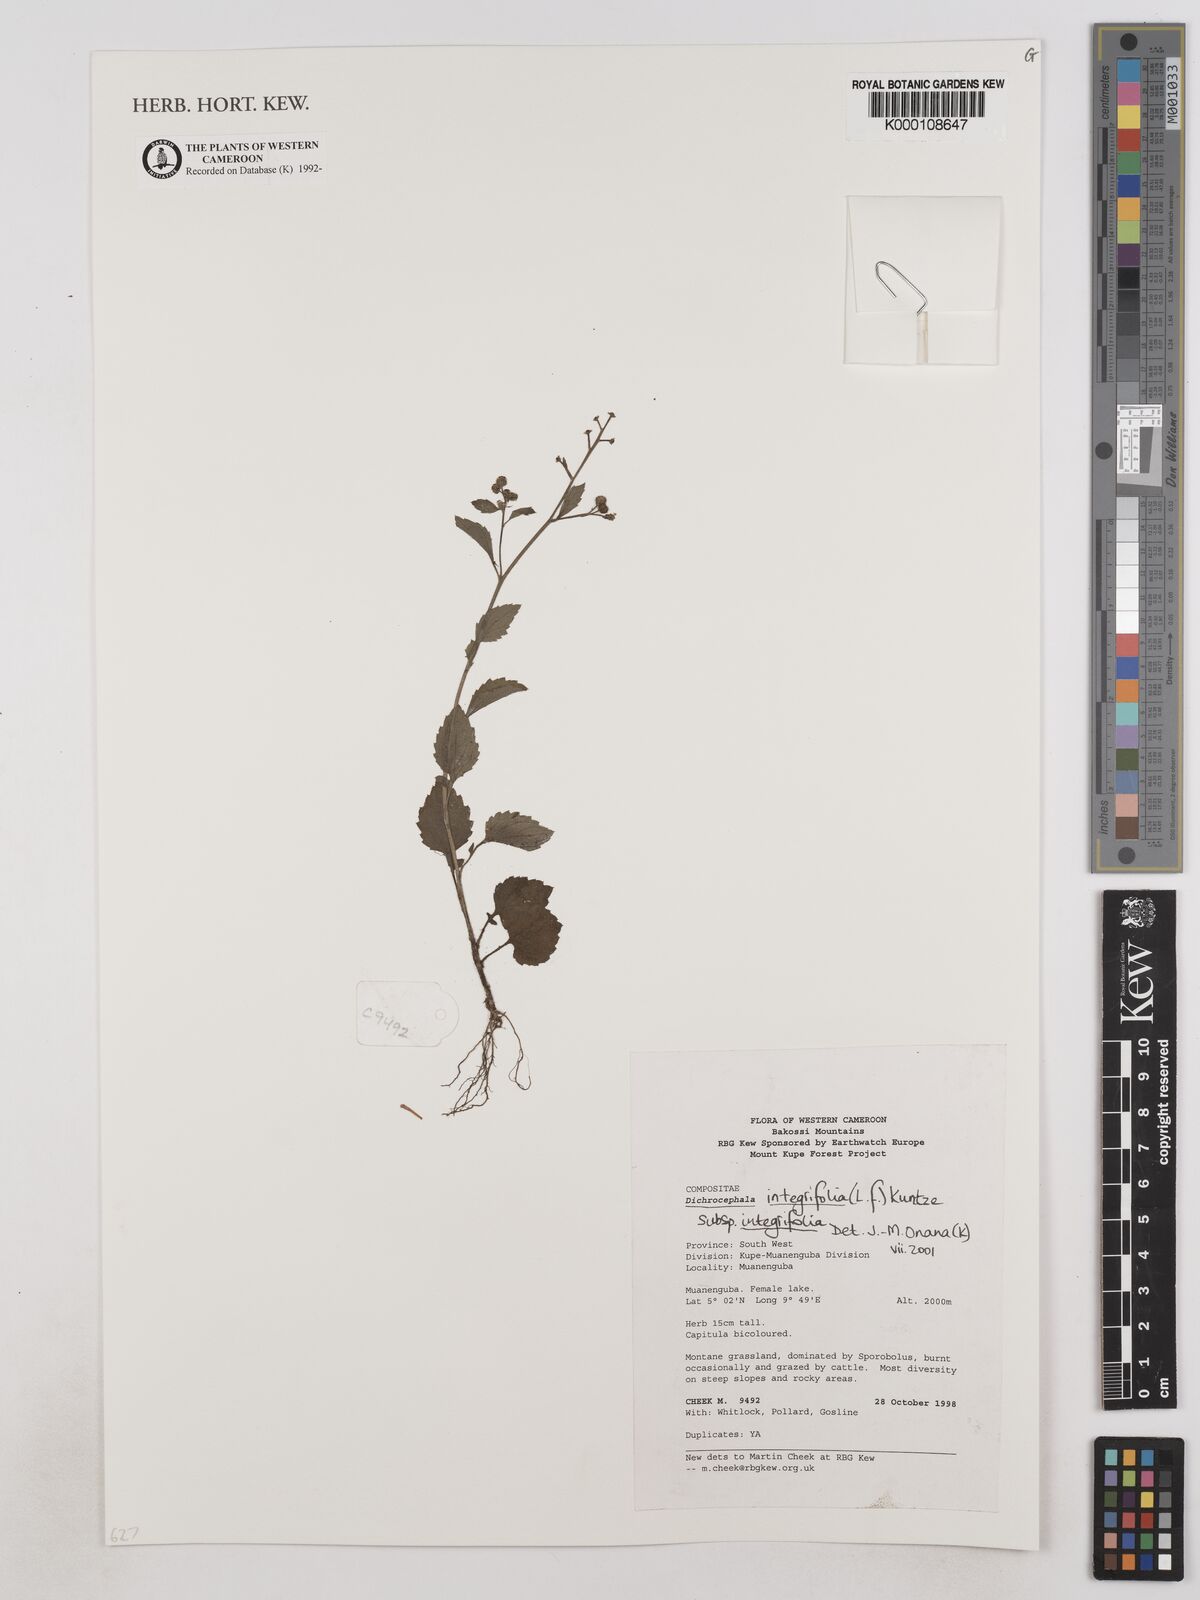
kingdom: Plantae
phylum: Tracheophyta
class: Magnoliopsida
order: Asterales
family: Asteraceae
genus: Dichrocephala
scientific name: Dichrocephala integrifolia
